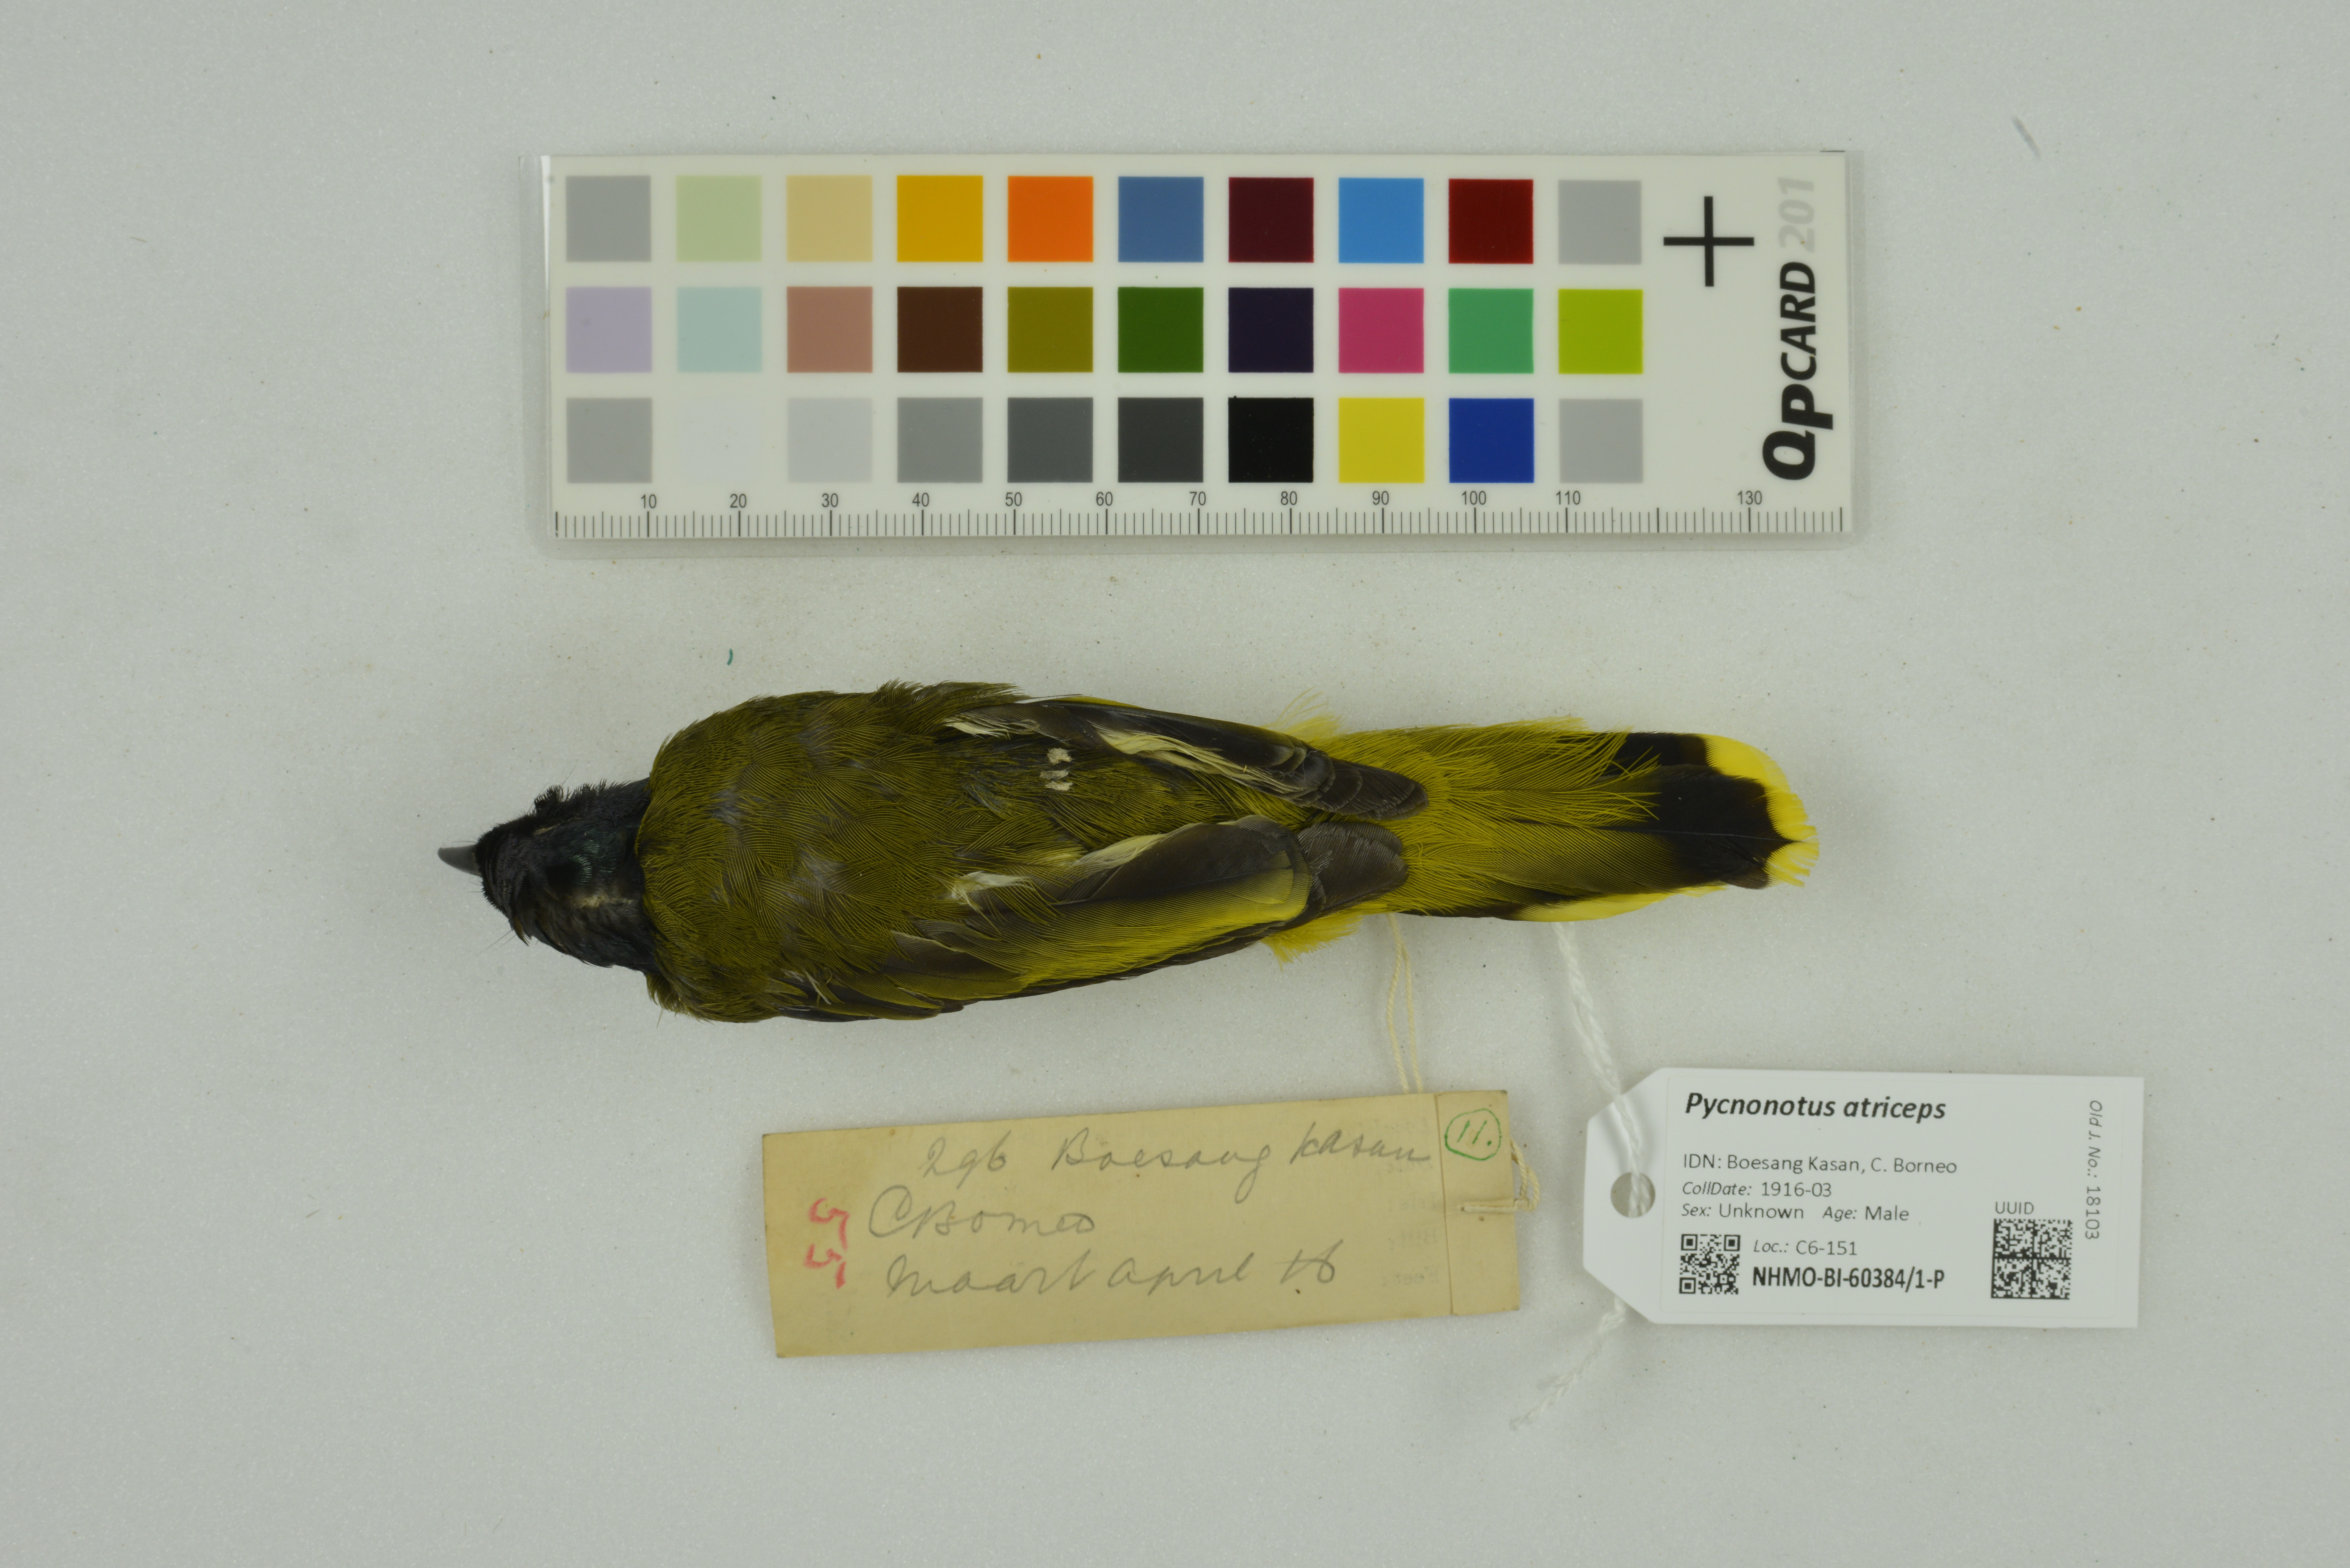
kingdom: Animalia
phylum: Chordata
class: Aves
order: Passeriformes
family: Pycnonotidae
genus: Brachypodius
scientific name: Brachypodius melanocephalos
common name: Black-headed bulbul
